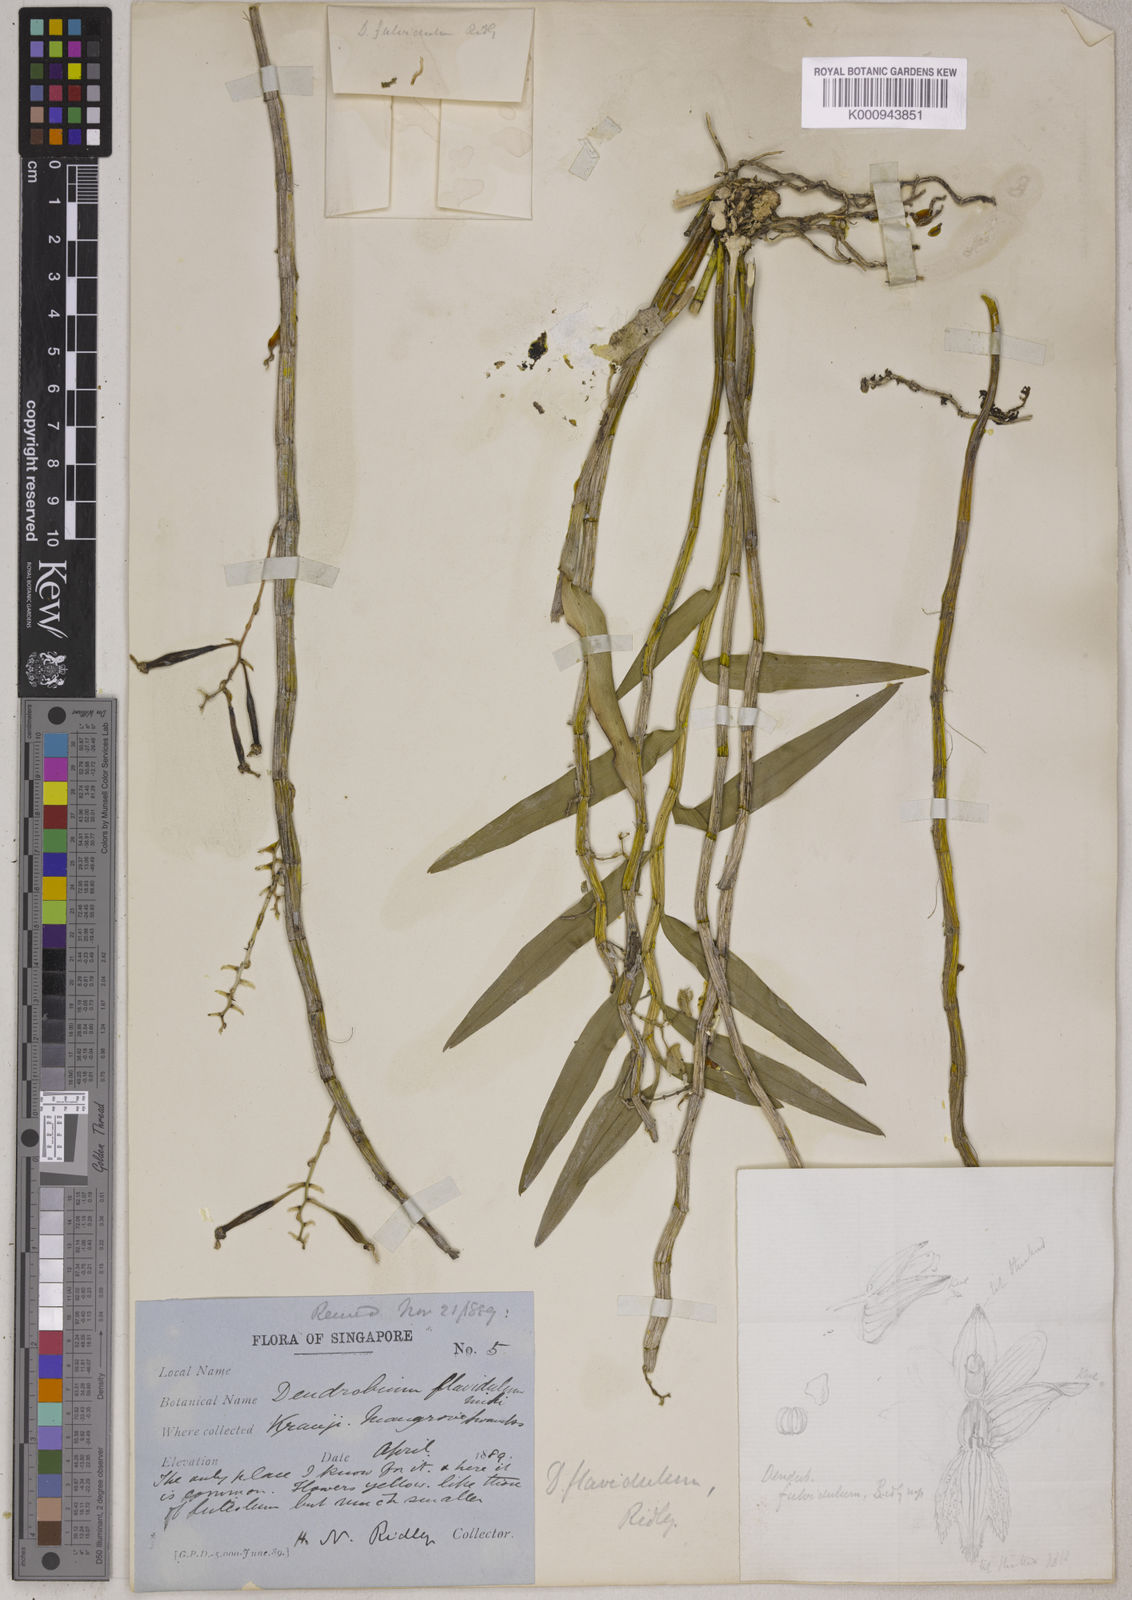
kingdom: Plantae
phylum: Tracheophyta
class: Liliopsida
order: Asparagales
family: Orchidaceae
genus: Dendrobium
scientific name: Dendrobium stuposum
